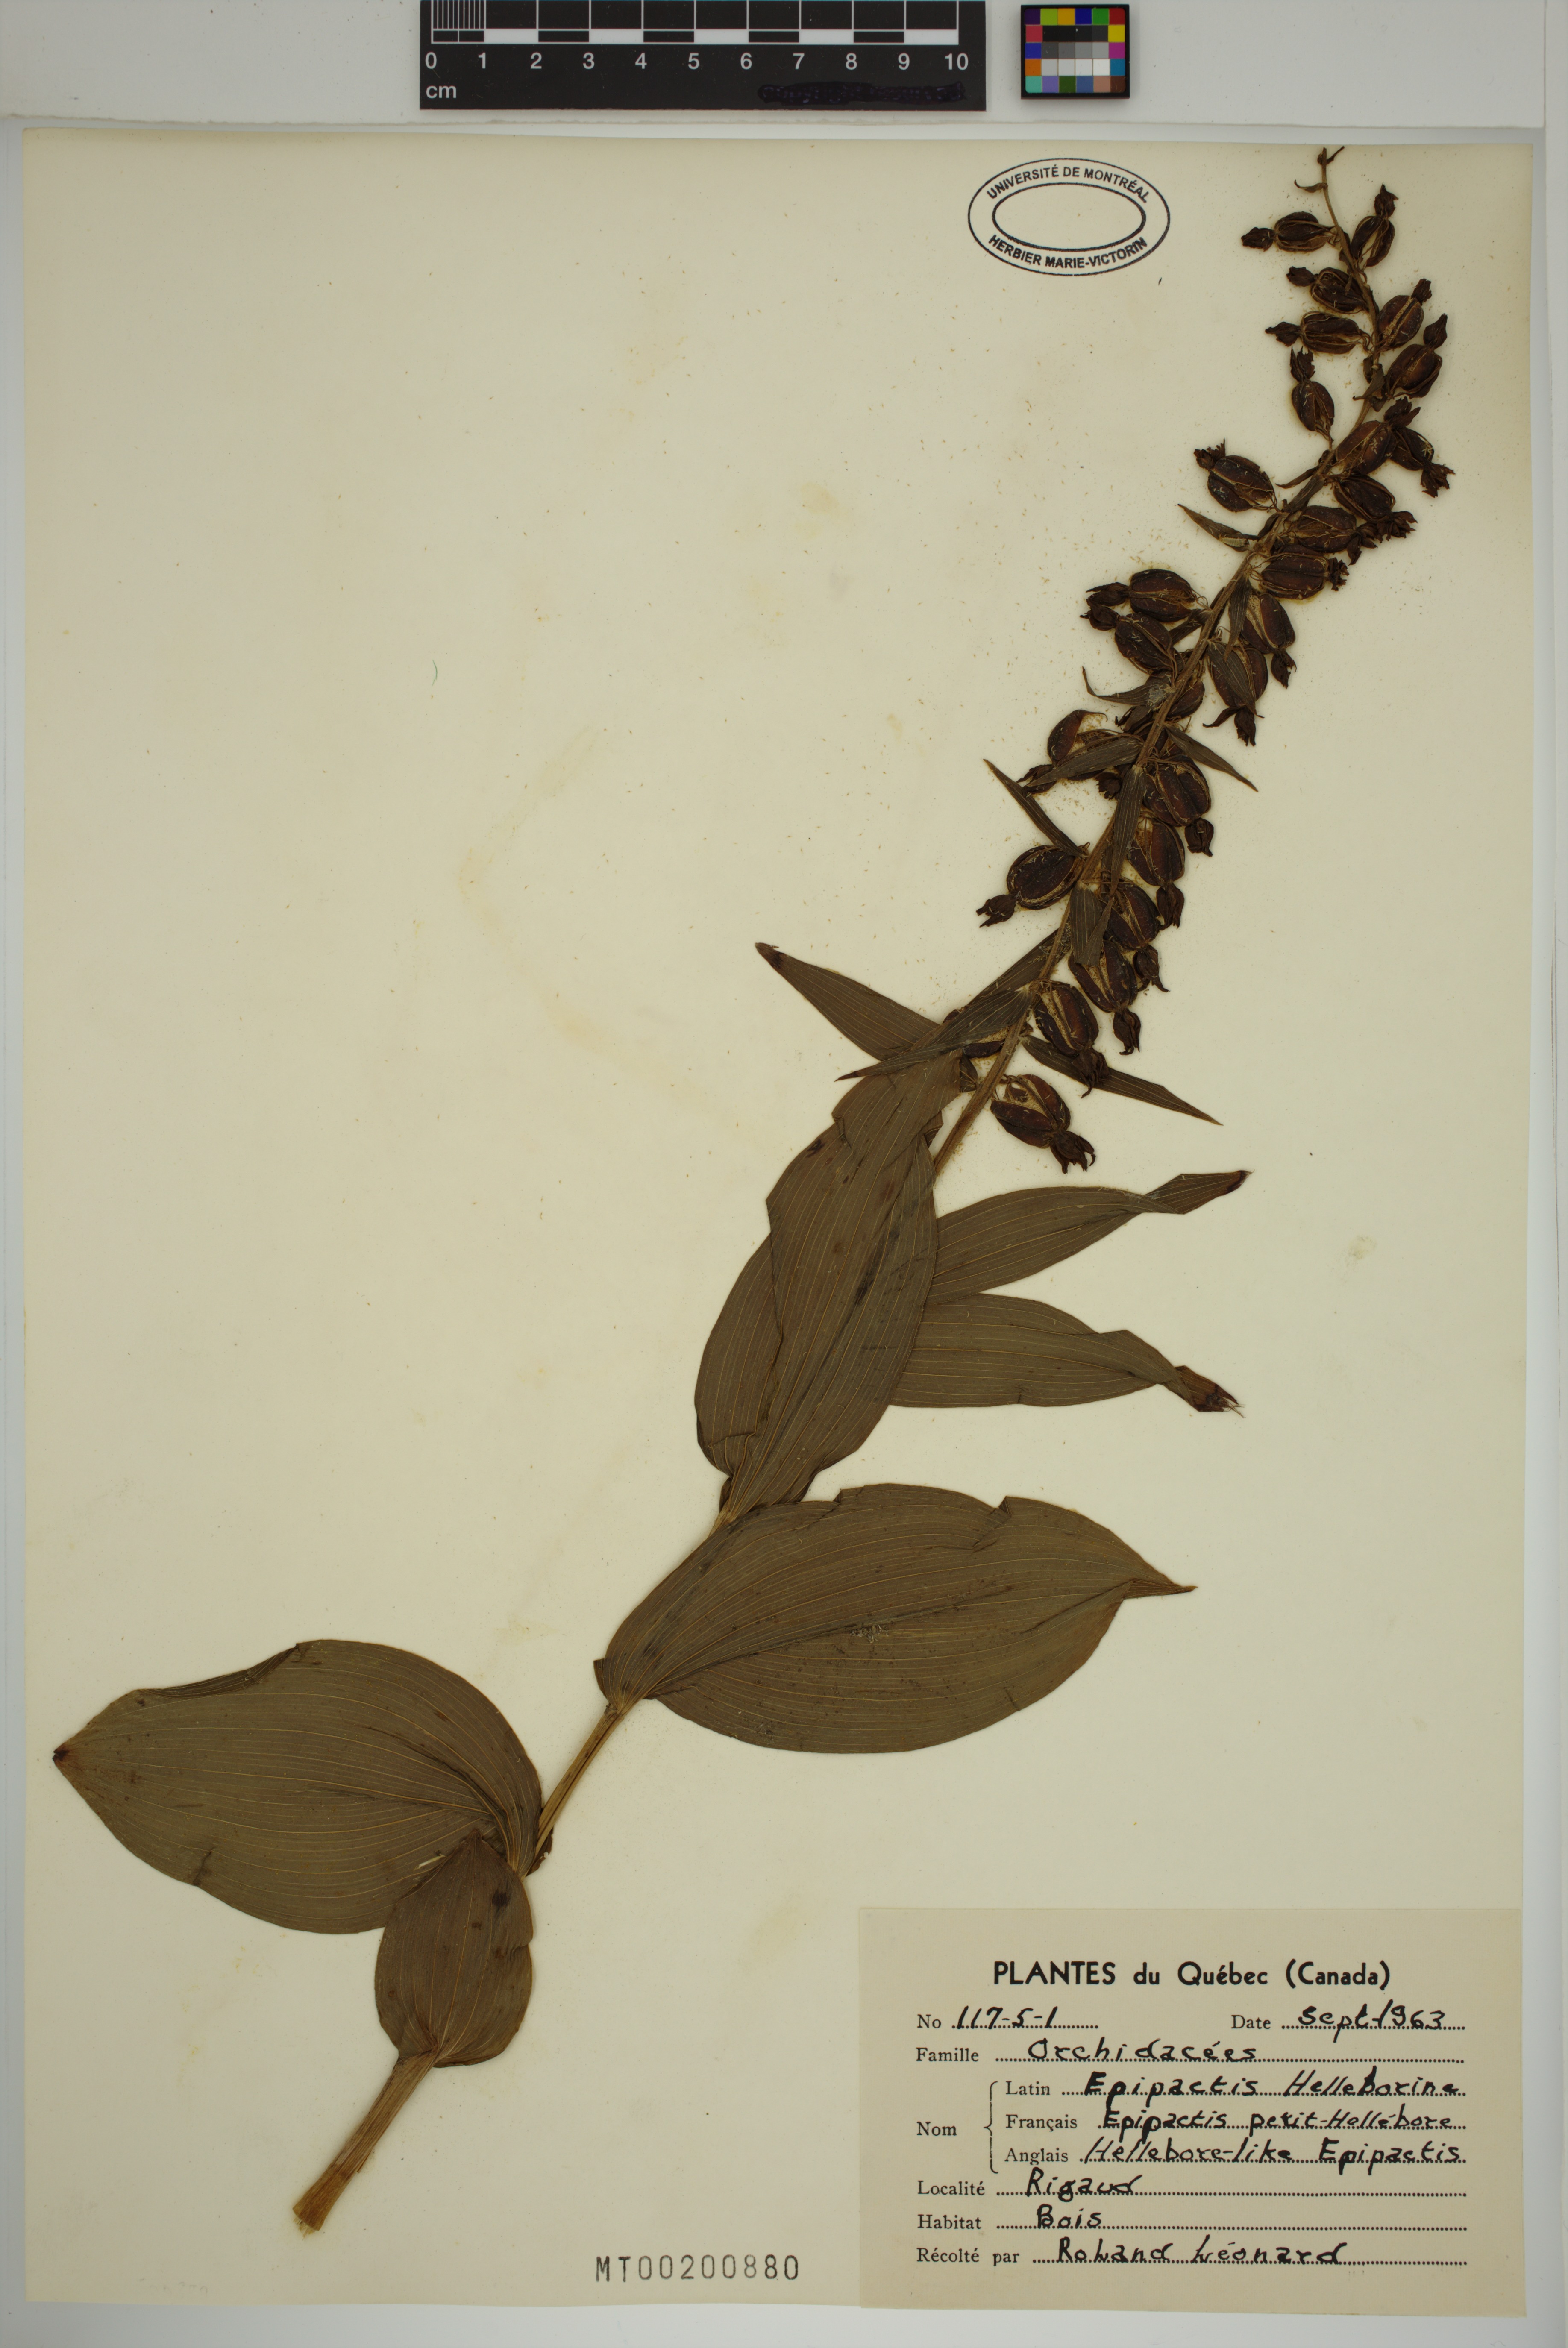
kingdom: Plantae
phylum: Tracheophyta
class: Liliopsida
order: Asparagales
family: Orchidaceae
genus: Epipactis
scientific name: Epipactis helleborine
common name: Broad-leaved helleborine
